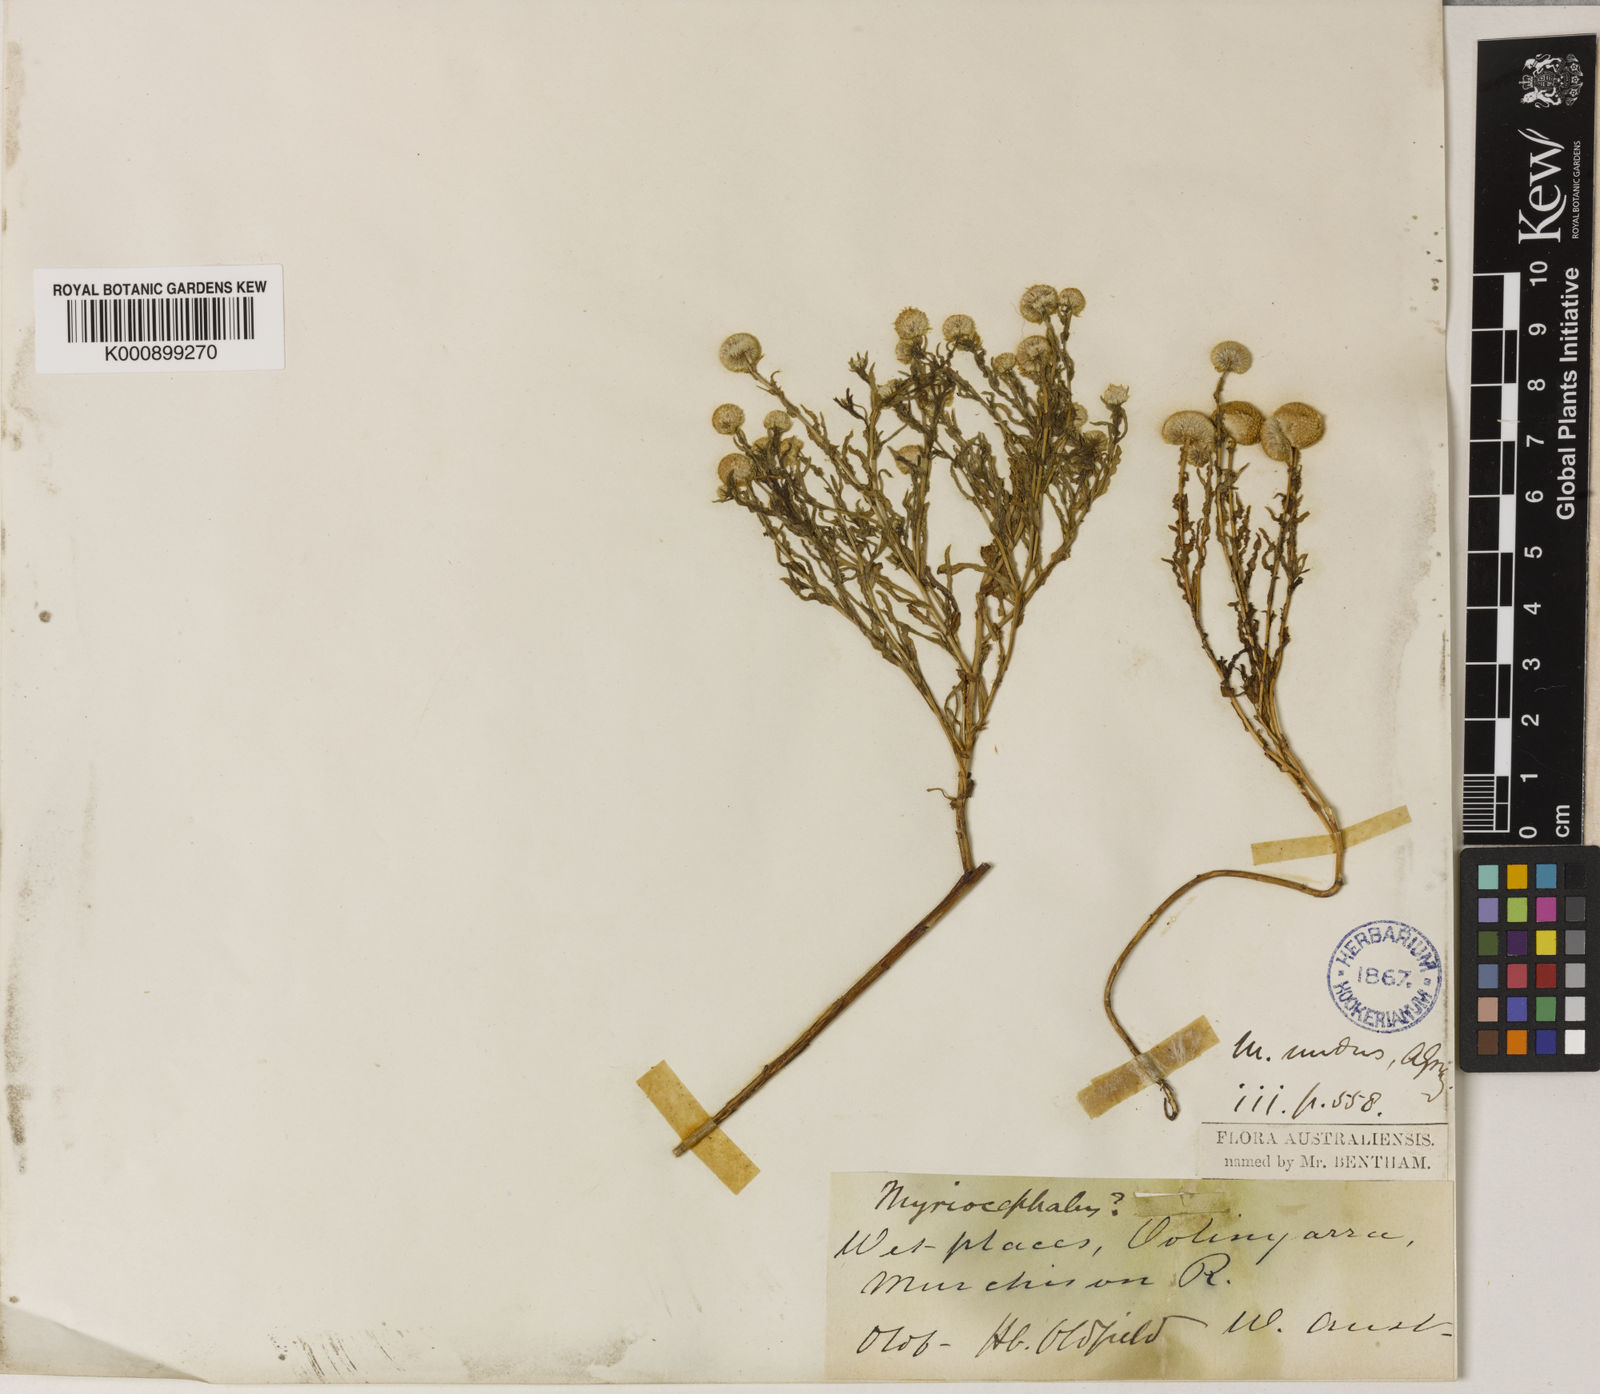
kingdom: Plantae
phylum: Tracheophyta
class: Magnoliopsida
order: Asterales
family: Asteraceae
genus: Myriocephalus
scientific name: Myriocephalus oldfieldii
